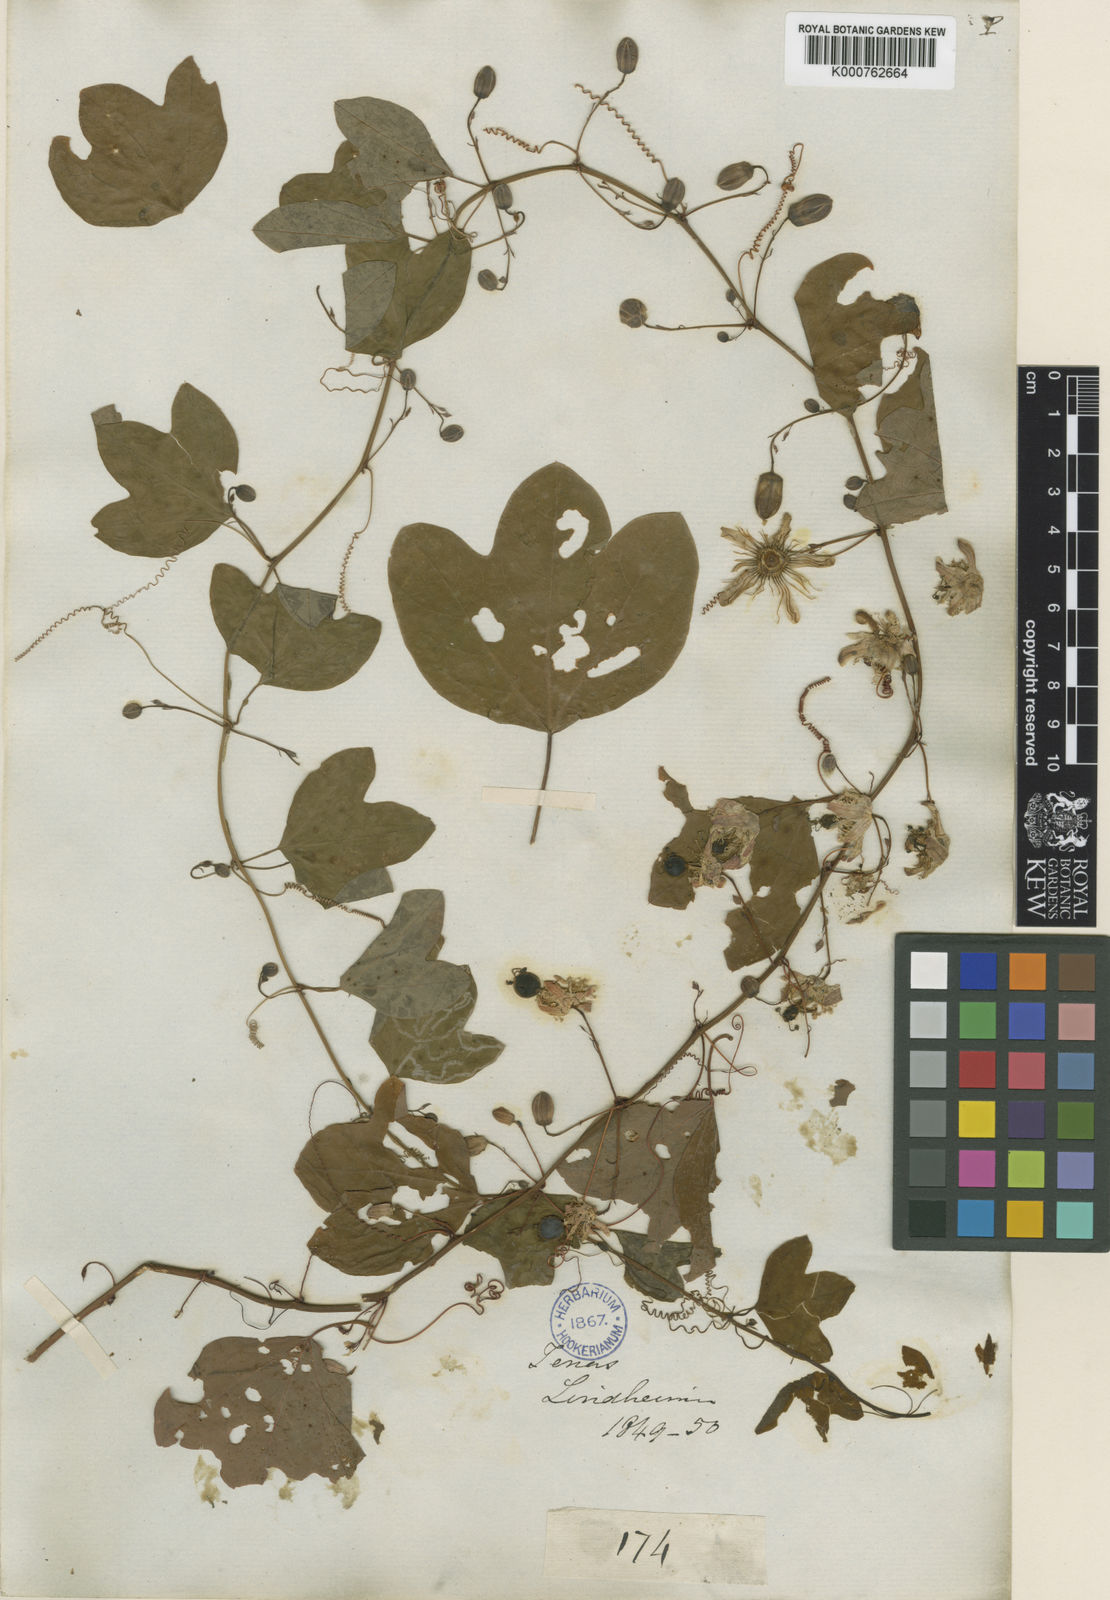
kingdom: Plantae
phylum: Tracheophyta
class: Magnoliopsida
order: Malpighiales
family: Passifloraceae
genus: Passiflora
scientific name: Passiflora affinis
